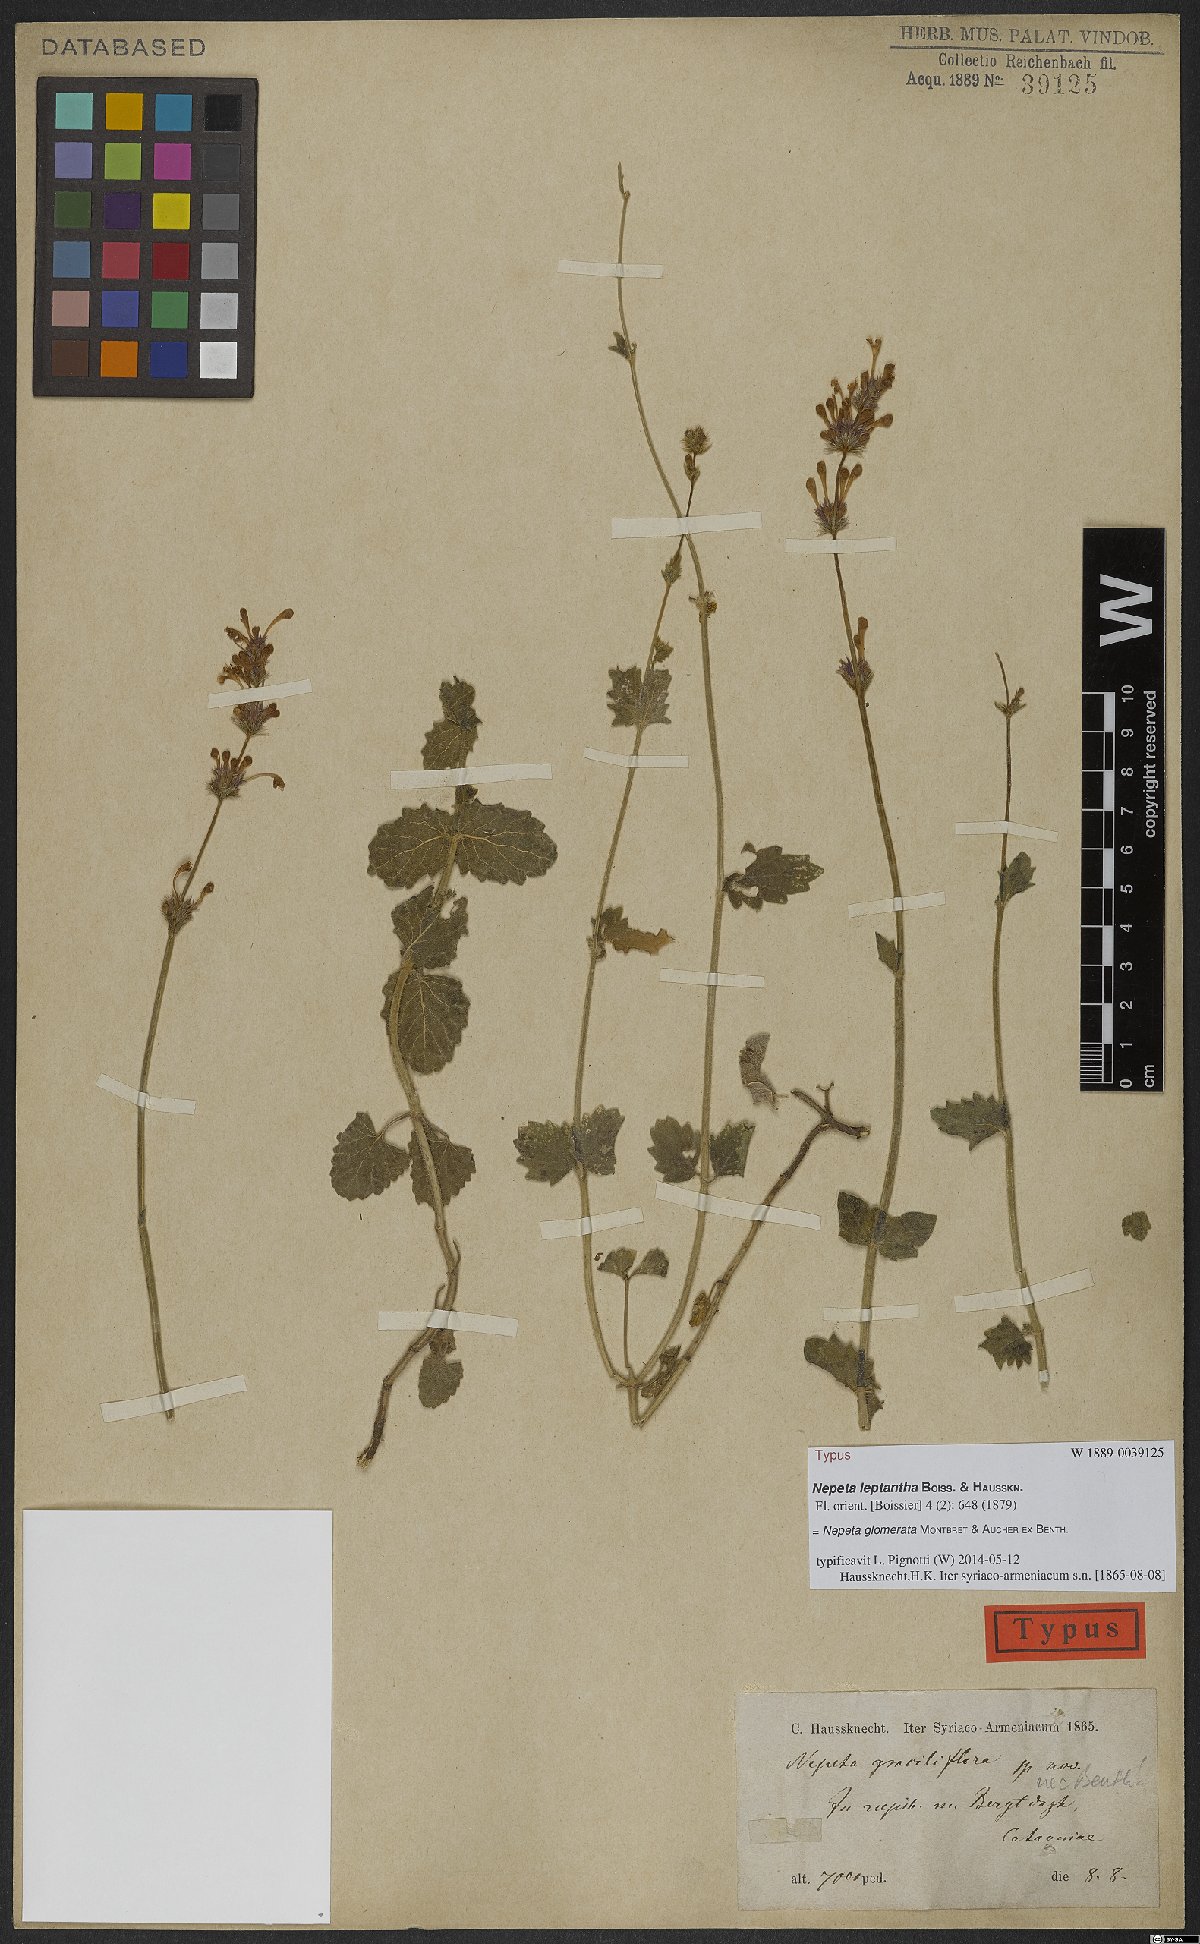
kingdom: Plantae
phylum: Tracheophyta
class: Magnoliopsida
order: Lamiales
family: Lamiaceae
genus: Nepeta
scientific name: Nepeta glomerata
